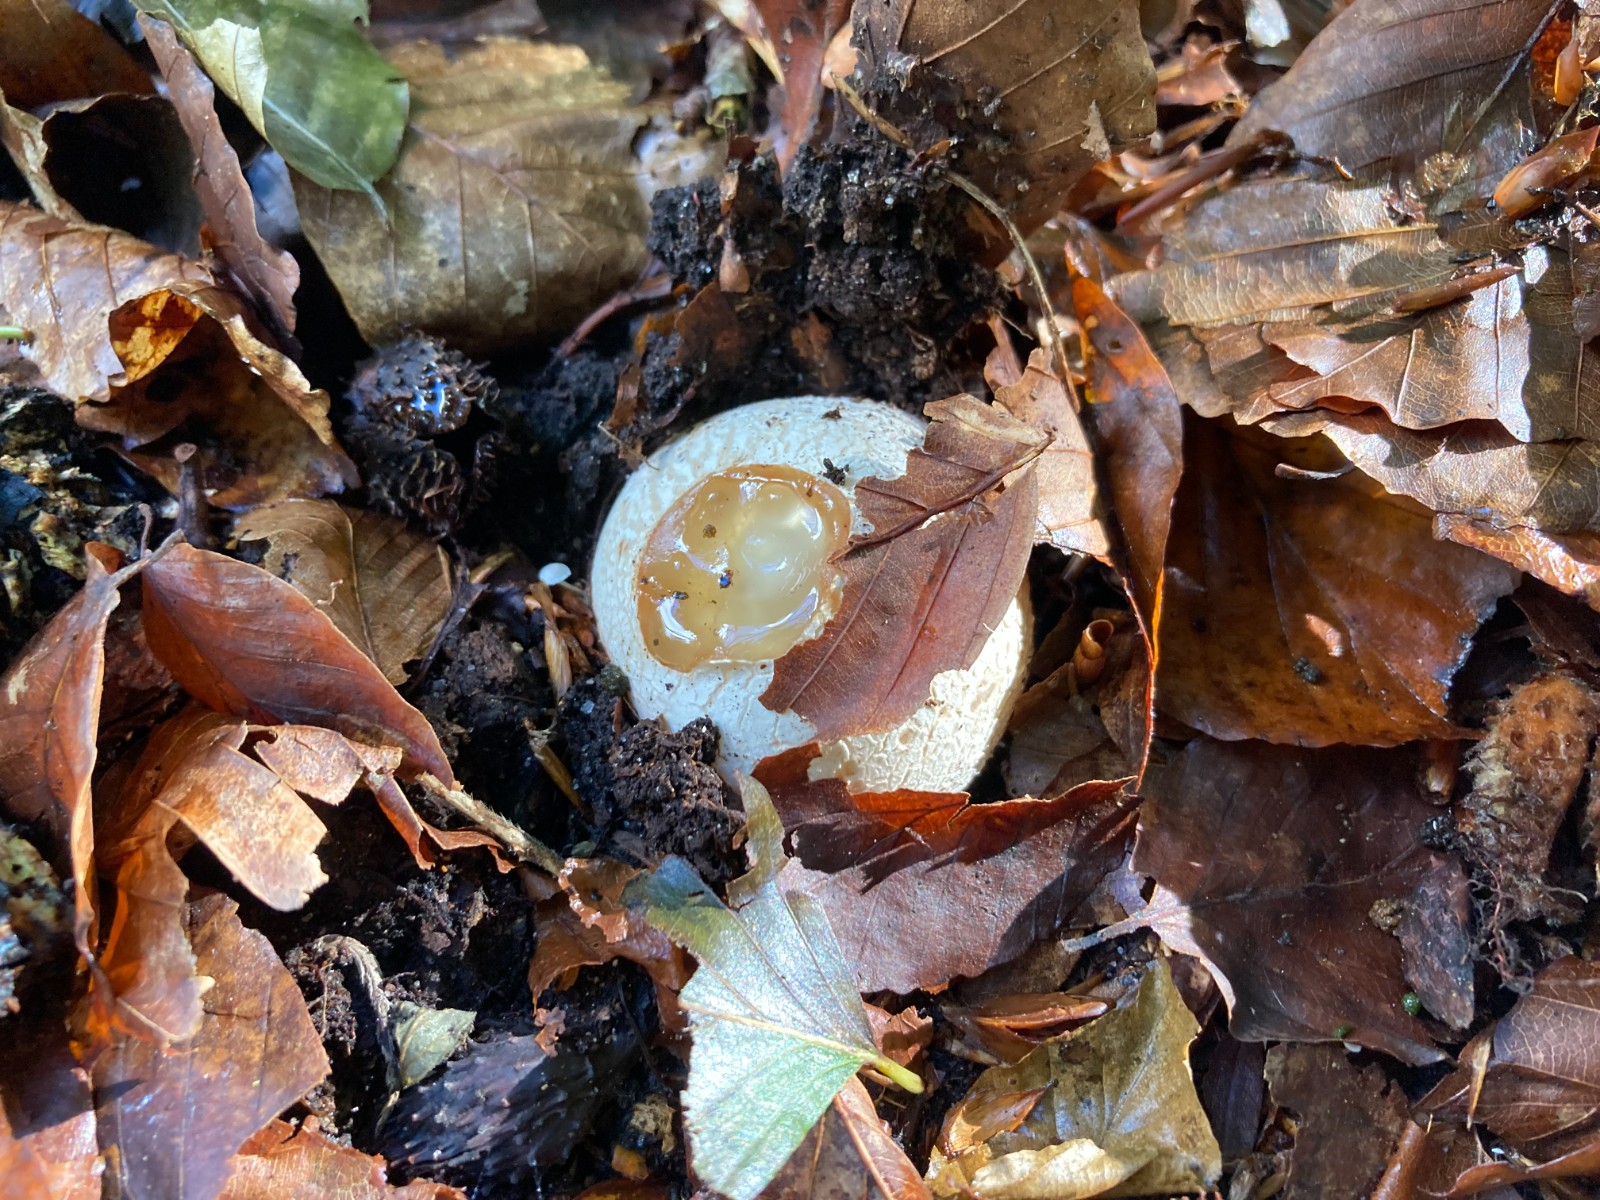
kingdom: Fungi
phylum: Basidiomycota
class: Agaricomycetes
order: Phallales
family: Phallaceae
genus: Phallus
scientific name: Phallus impudicus
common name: almindelig stinksvamp
